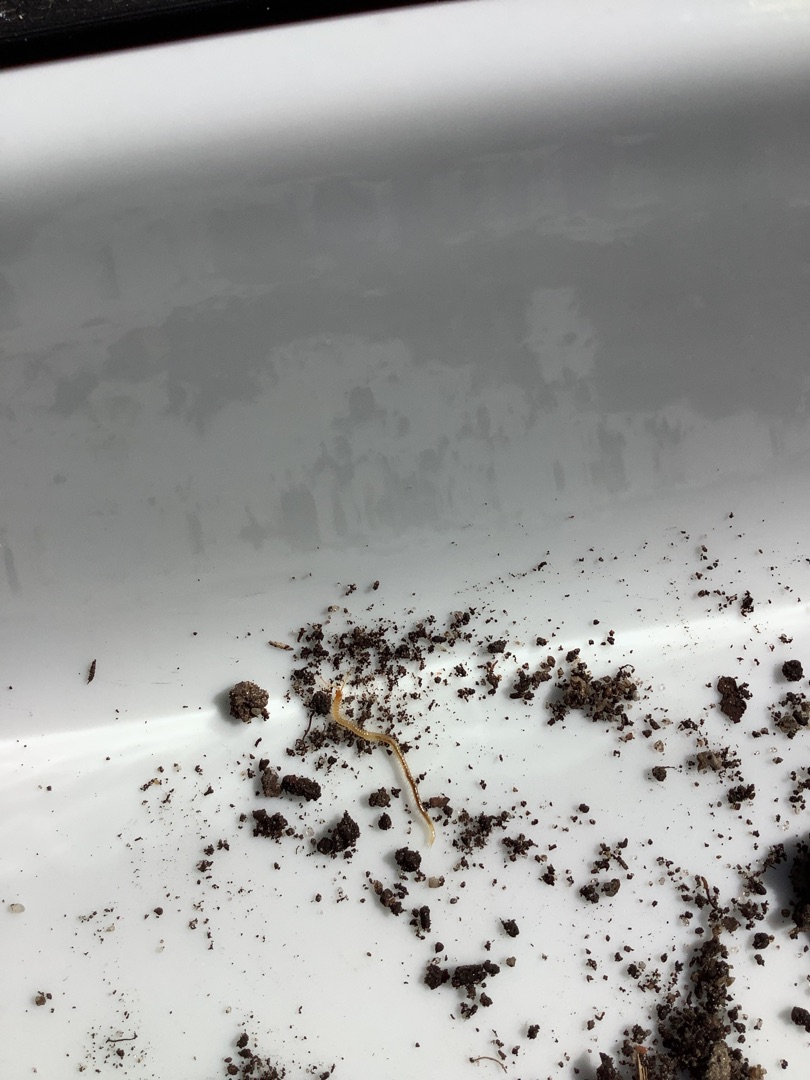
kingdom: Animalia
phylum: Arthropoda
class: Chilopoda
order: Geophilomorpha
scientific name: Geophilomorpha
